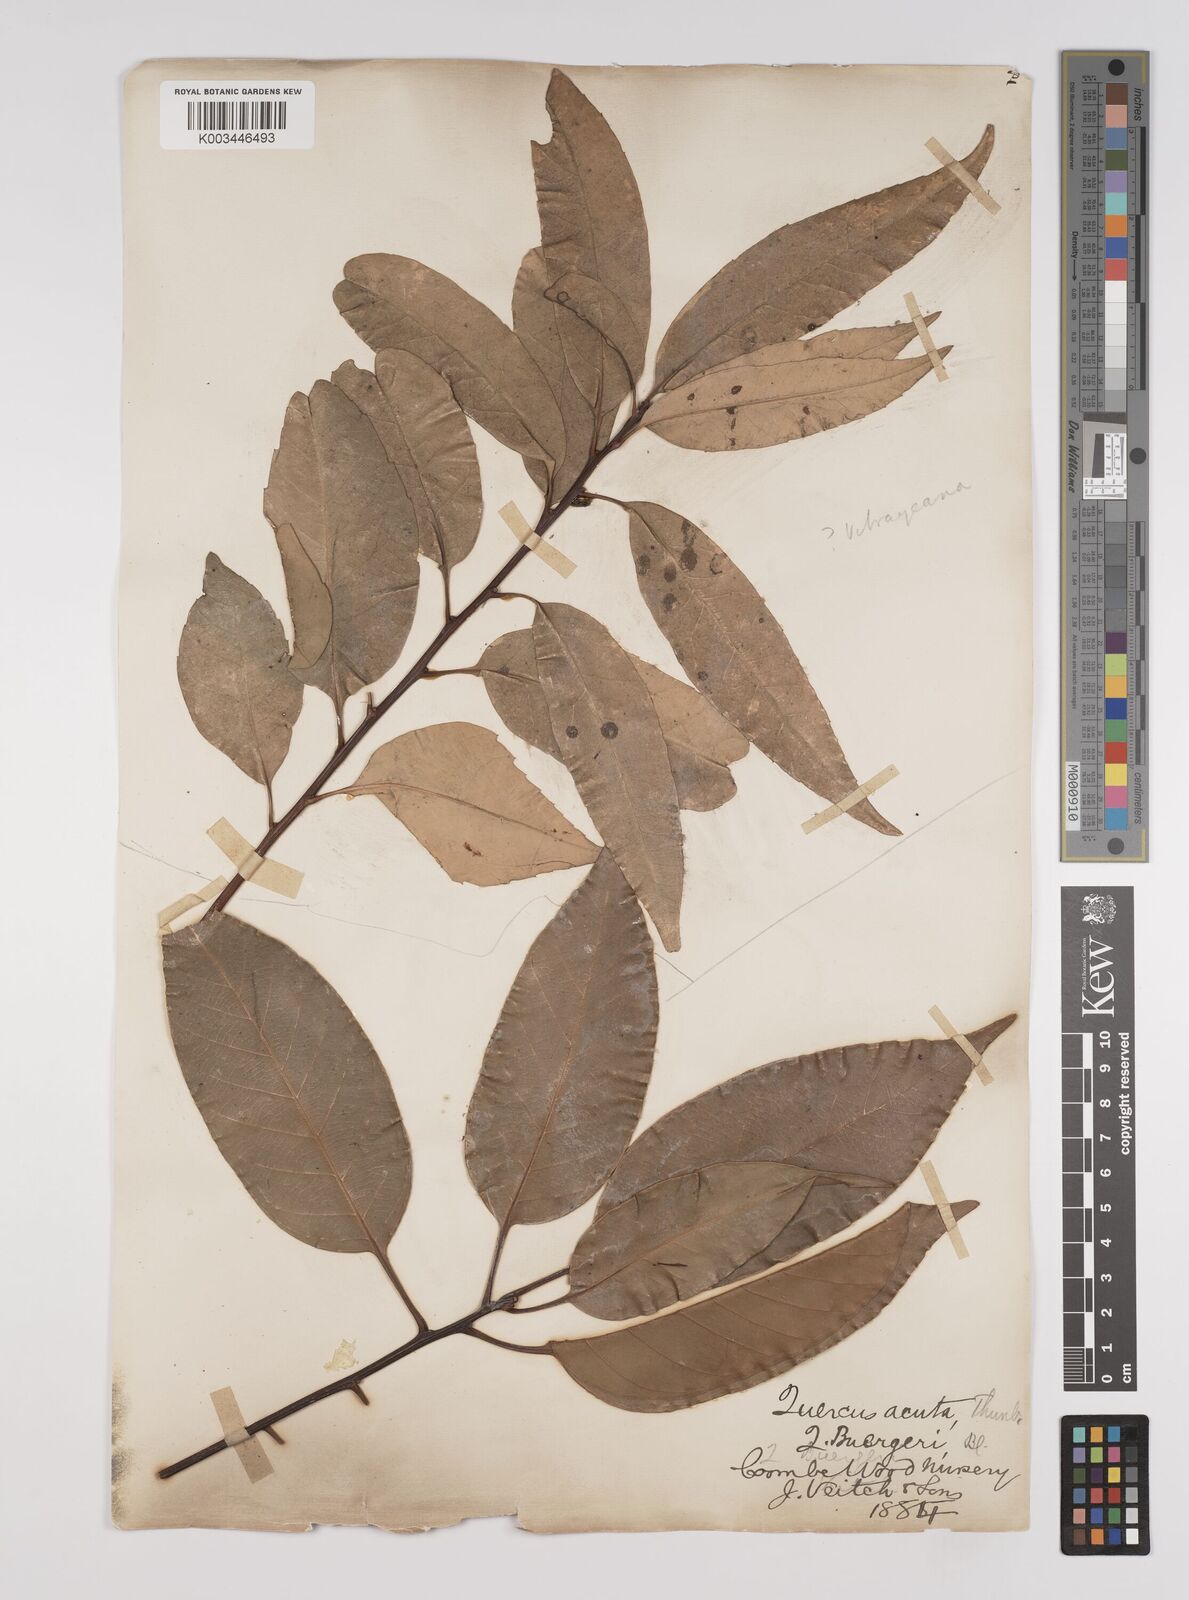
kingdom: Plantae
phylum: Tracheophyta
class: Magnoliopsida
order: Fagales
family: Fagaceae
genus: Quercus
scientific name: Quercus coccinea
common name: Scarlet oak
